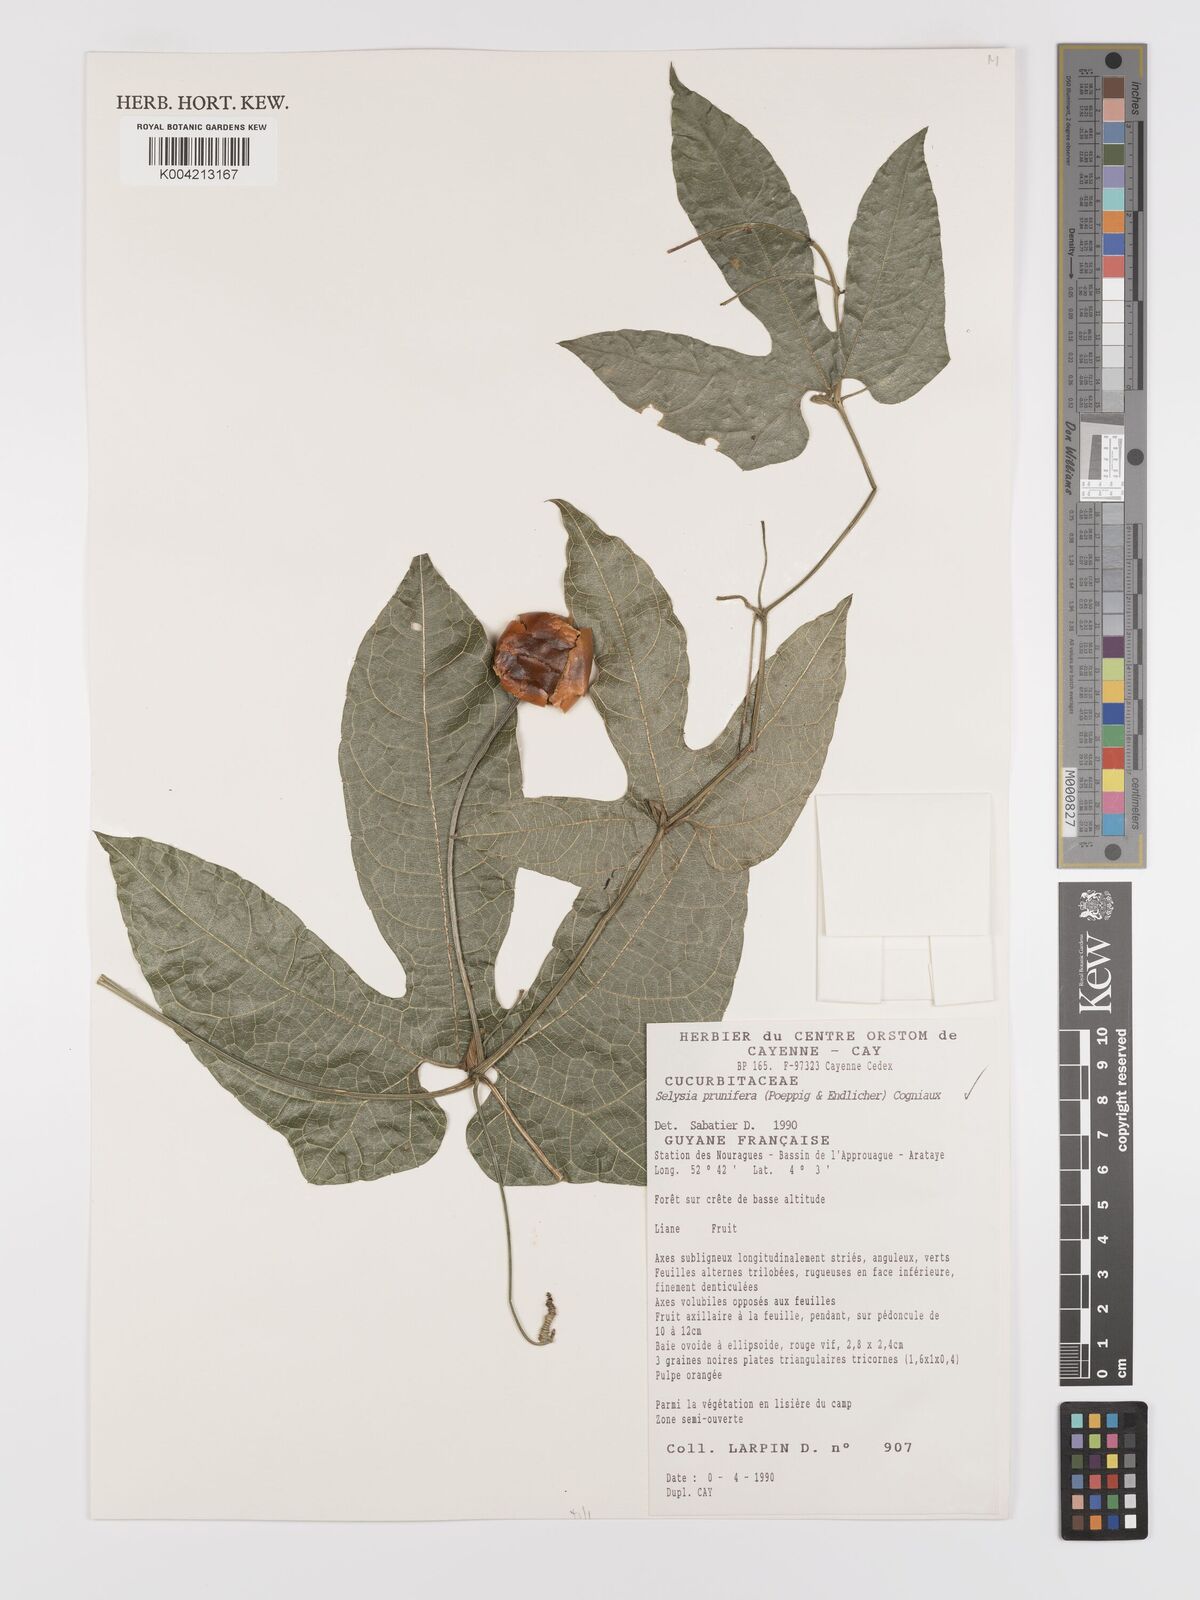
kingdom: Plantae
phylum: Tracheophyta
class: Magnoliopsida
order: Cucurbitales
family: Cucurbitaceae
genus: Cayaponia
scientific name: Cayaponia prunifera
